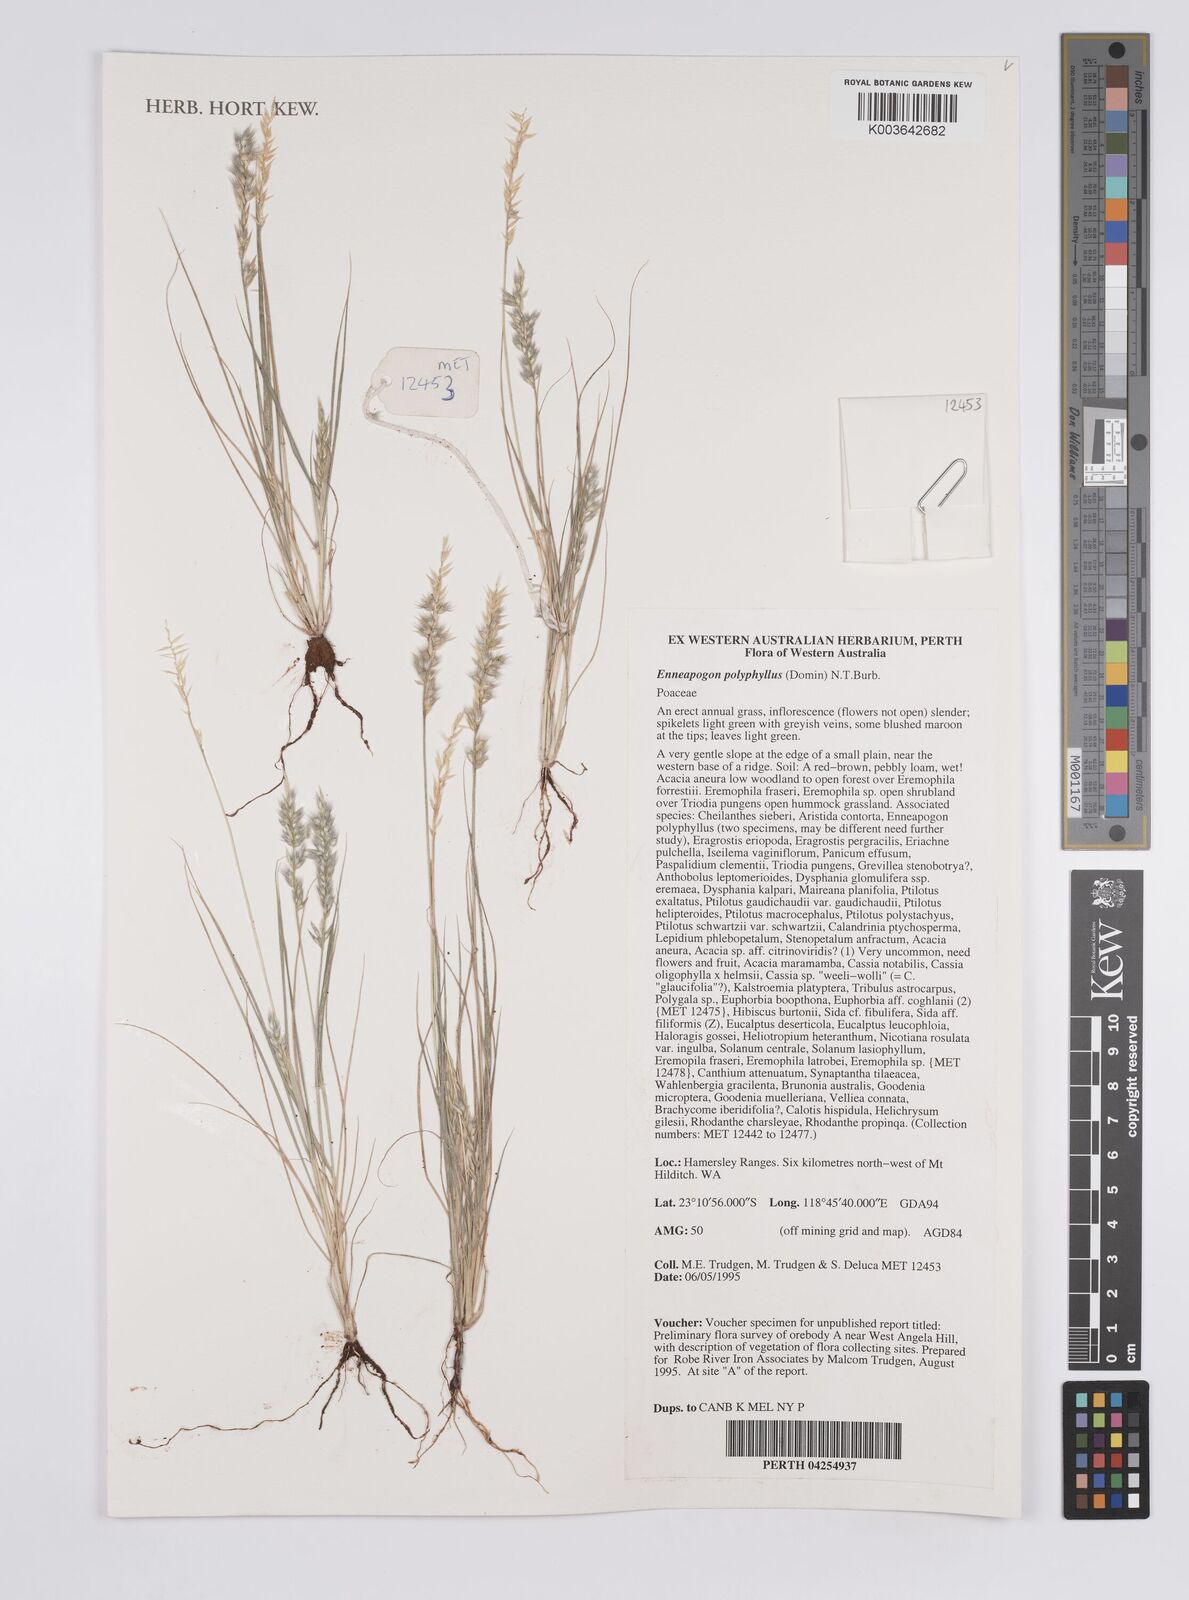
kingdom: Plantae
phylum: Tracheophyta
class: Liliopsida
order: Poales
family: Poaceae
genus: Enneapogon
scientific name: Enneapogon polyphyllus
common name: Leafy nineawn
